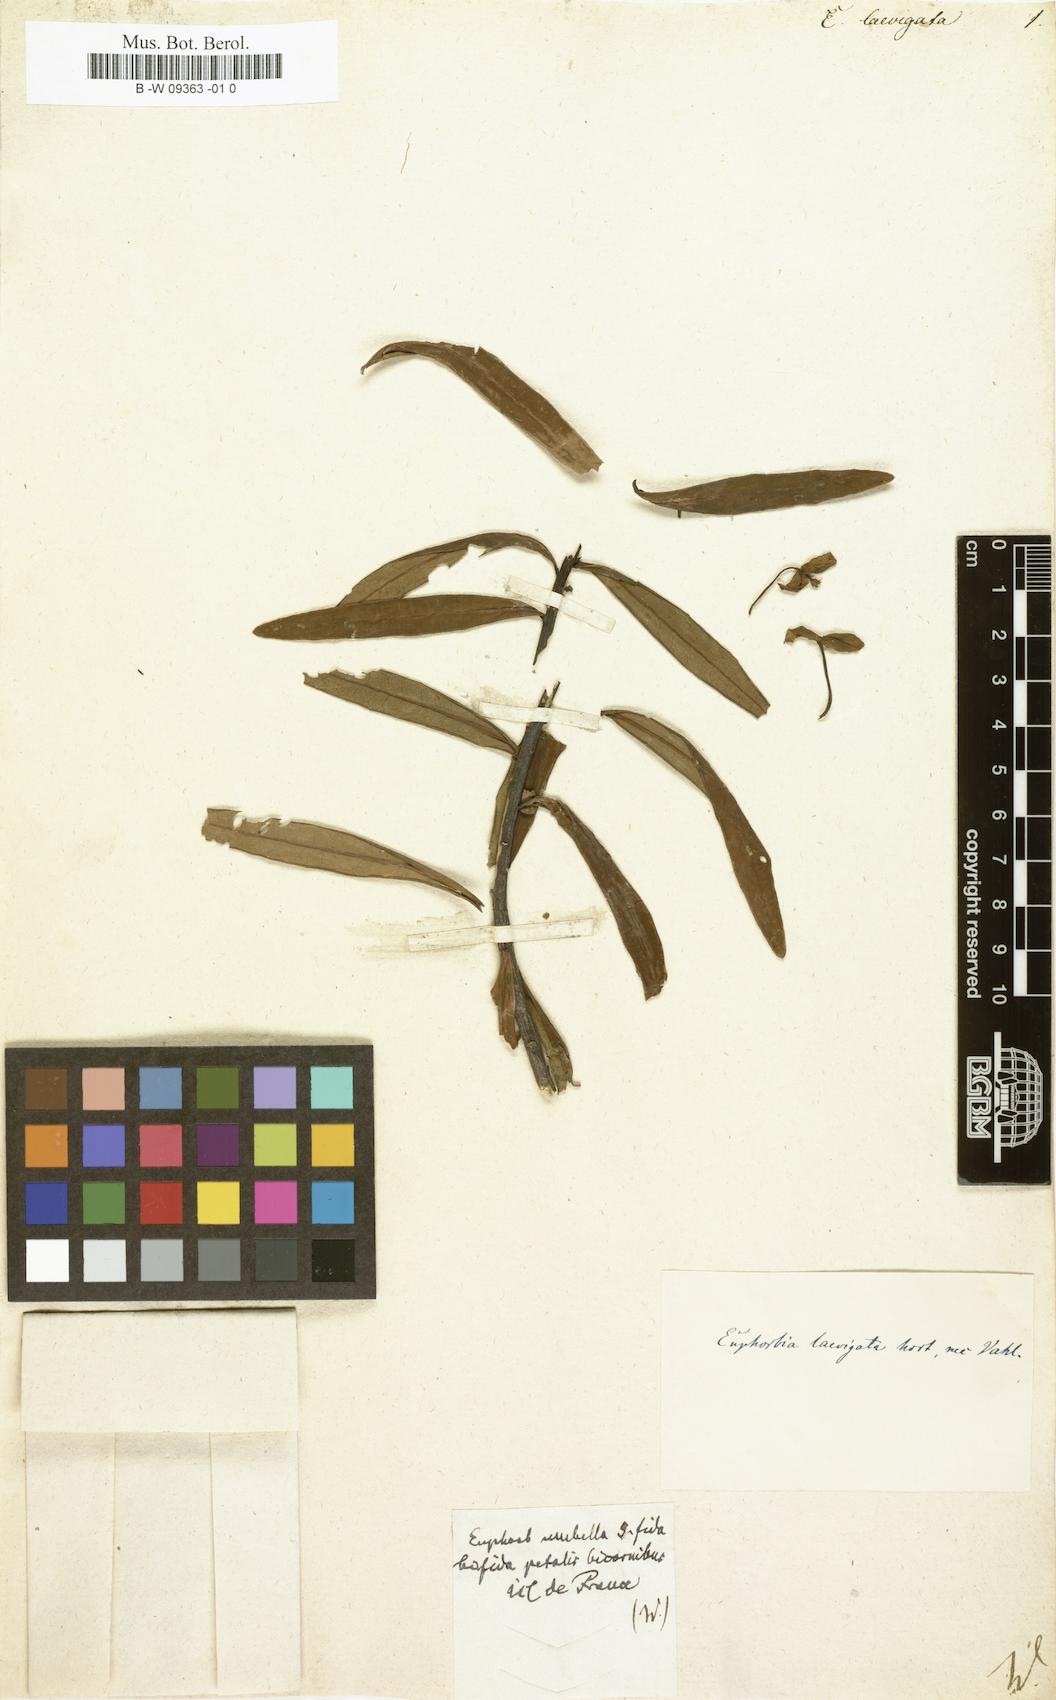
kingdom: Plantae
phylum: Tracheophyta
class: Magnoliopsida
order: Malpighiales
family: Euphorbiaceae
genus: Euphorbia
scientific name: Euphorbia laevigata
